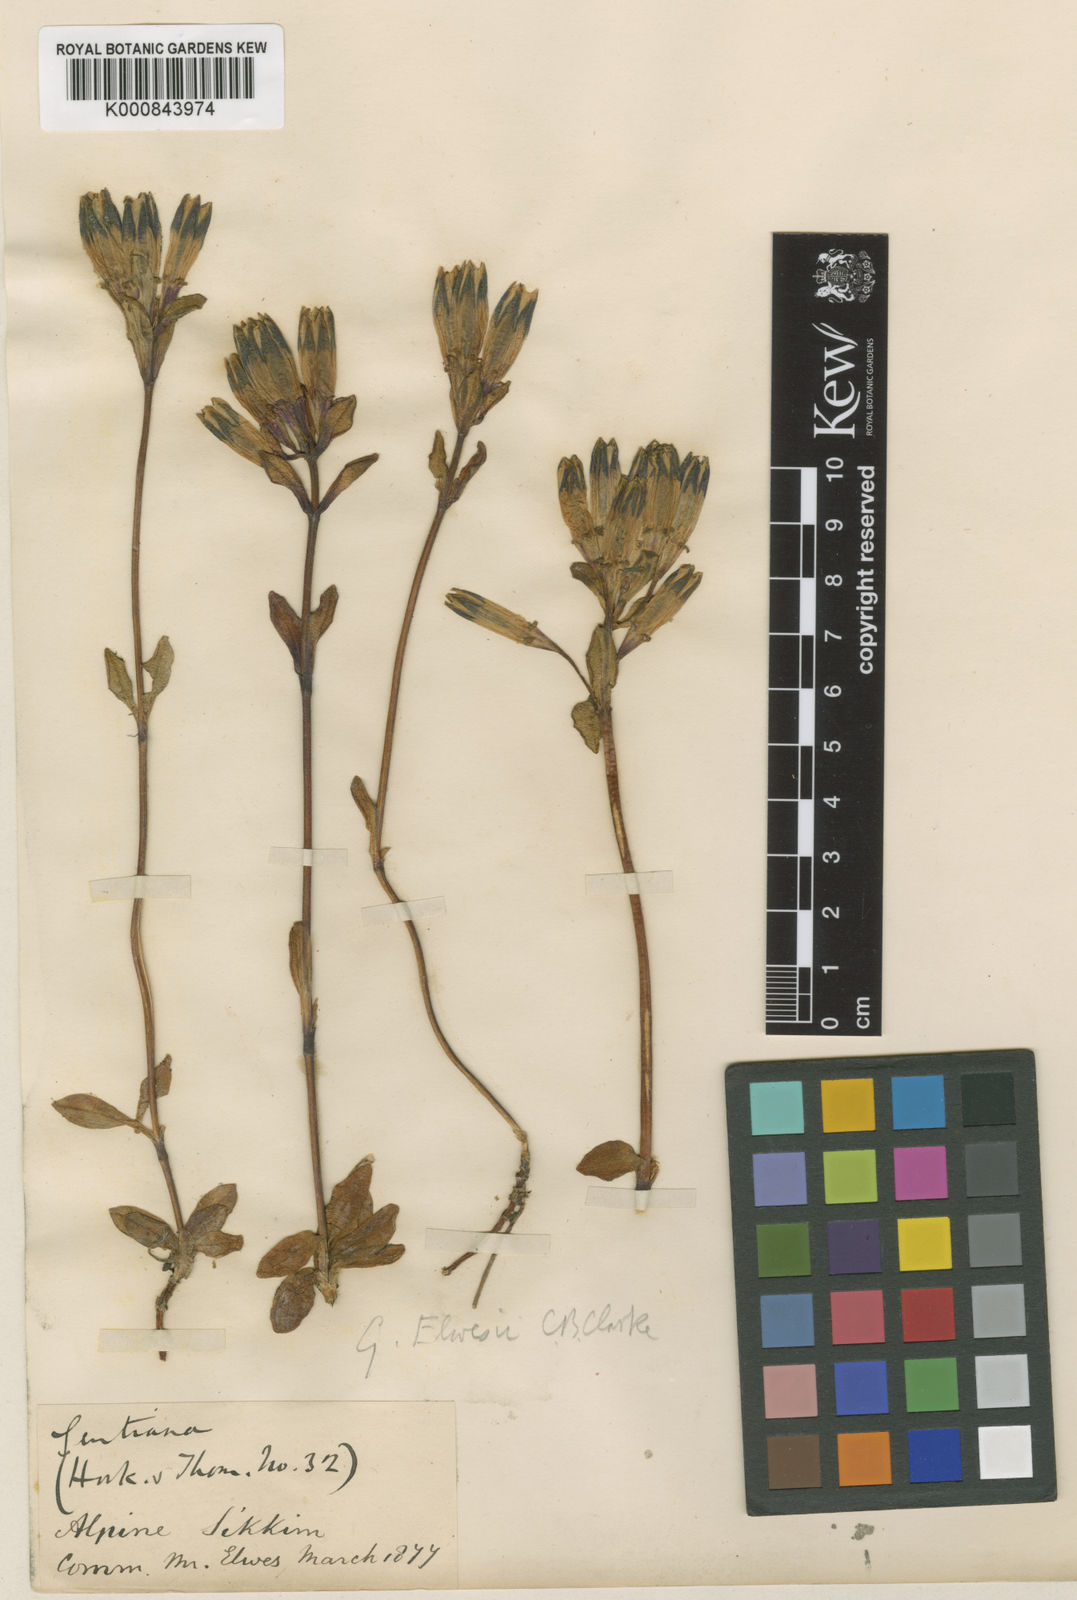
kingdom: Plantae
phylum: Tracheophyta
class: Magnoliopsida
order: Gentianales
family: Gentianaceae
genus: Gentiana
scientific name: Gentiana elwesii
